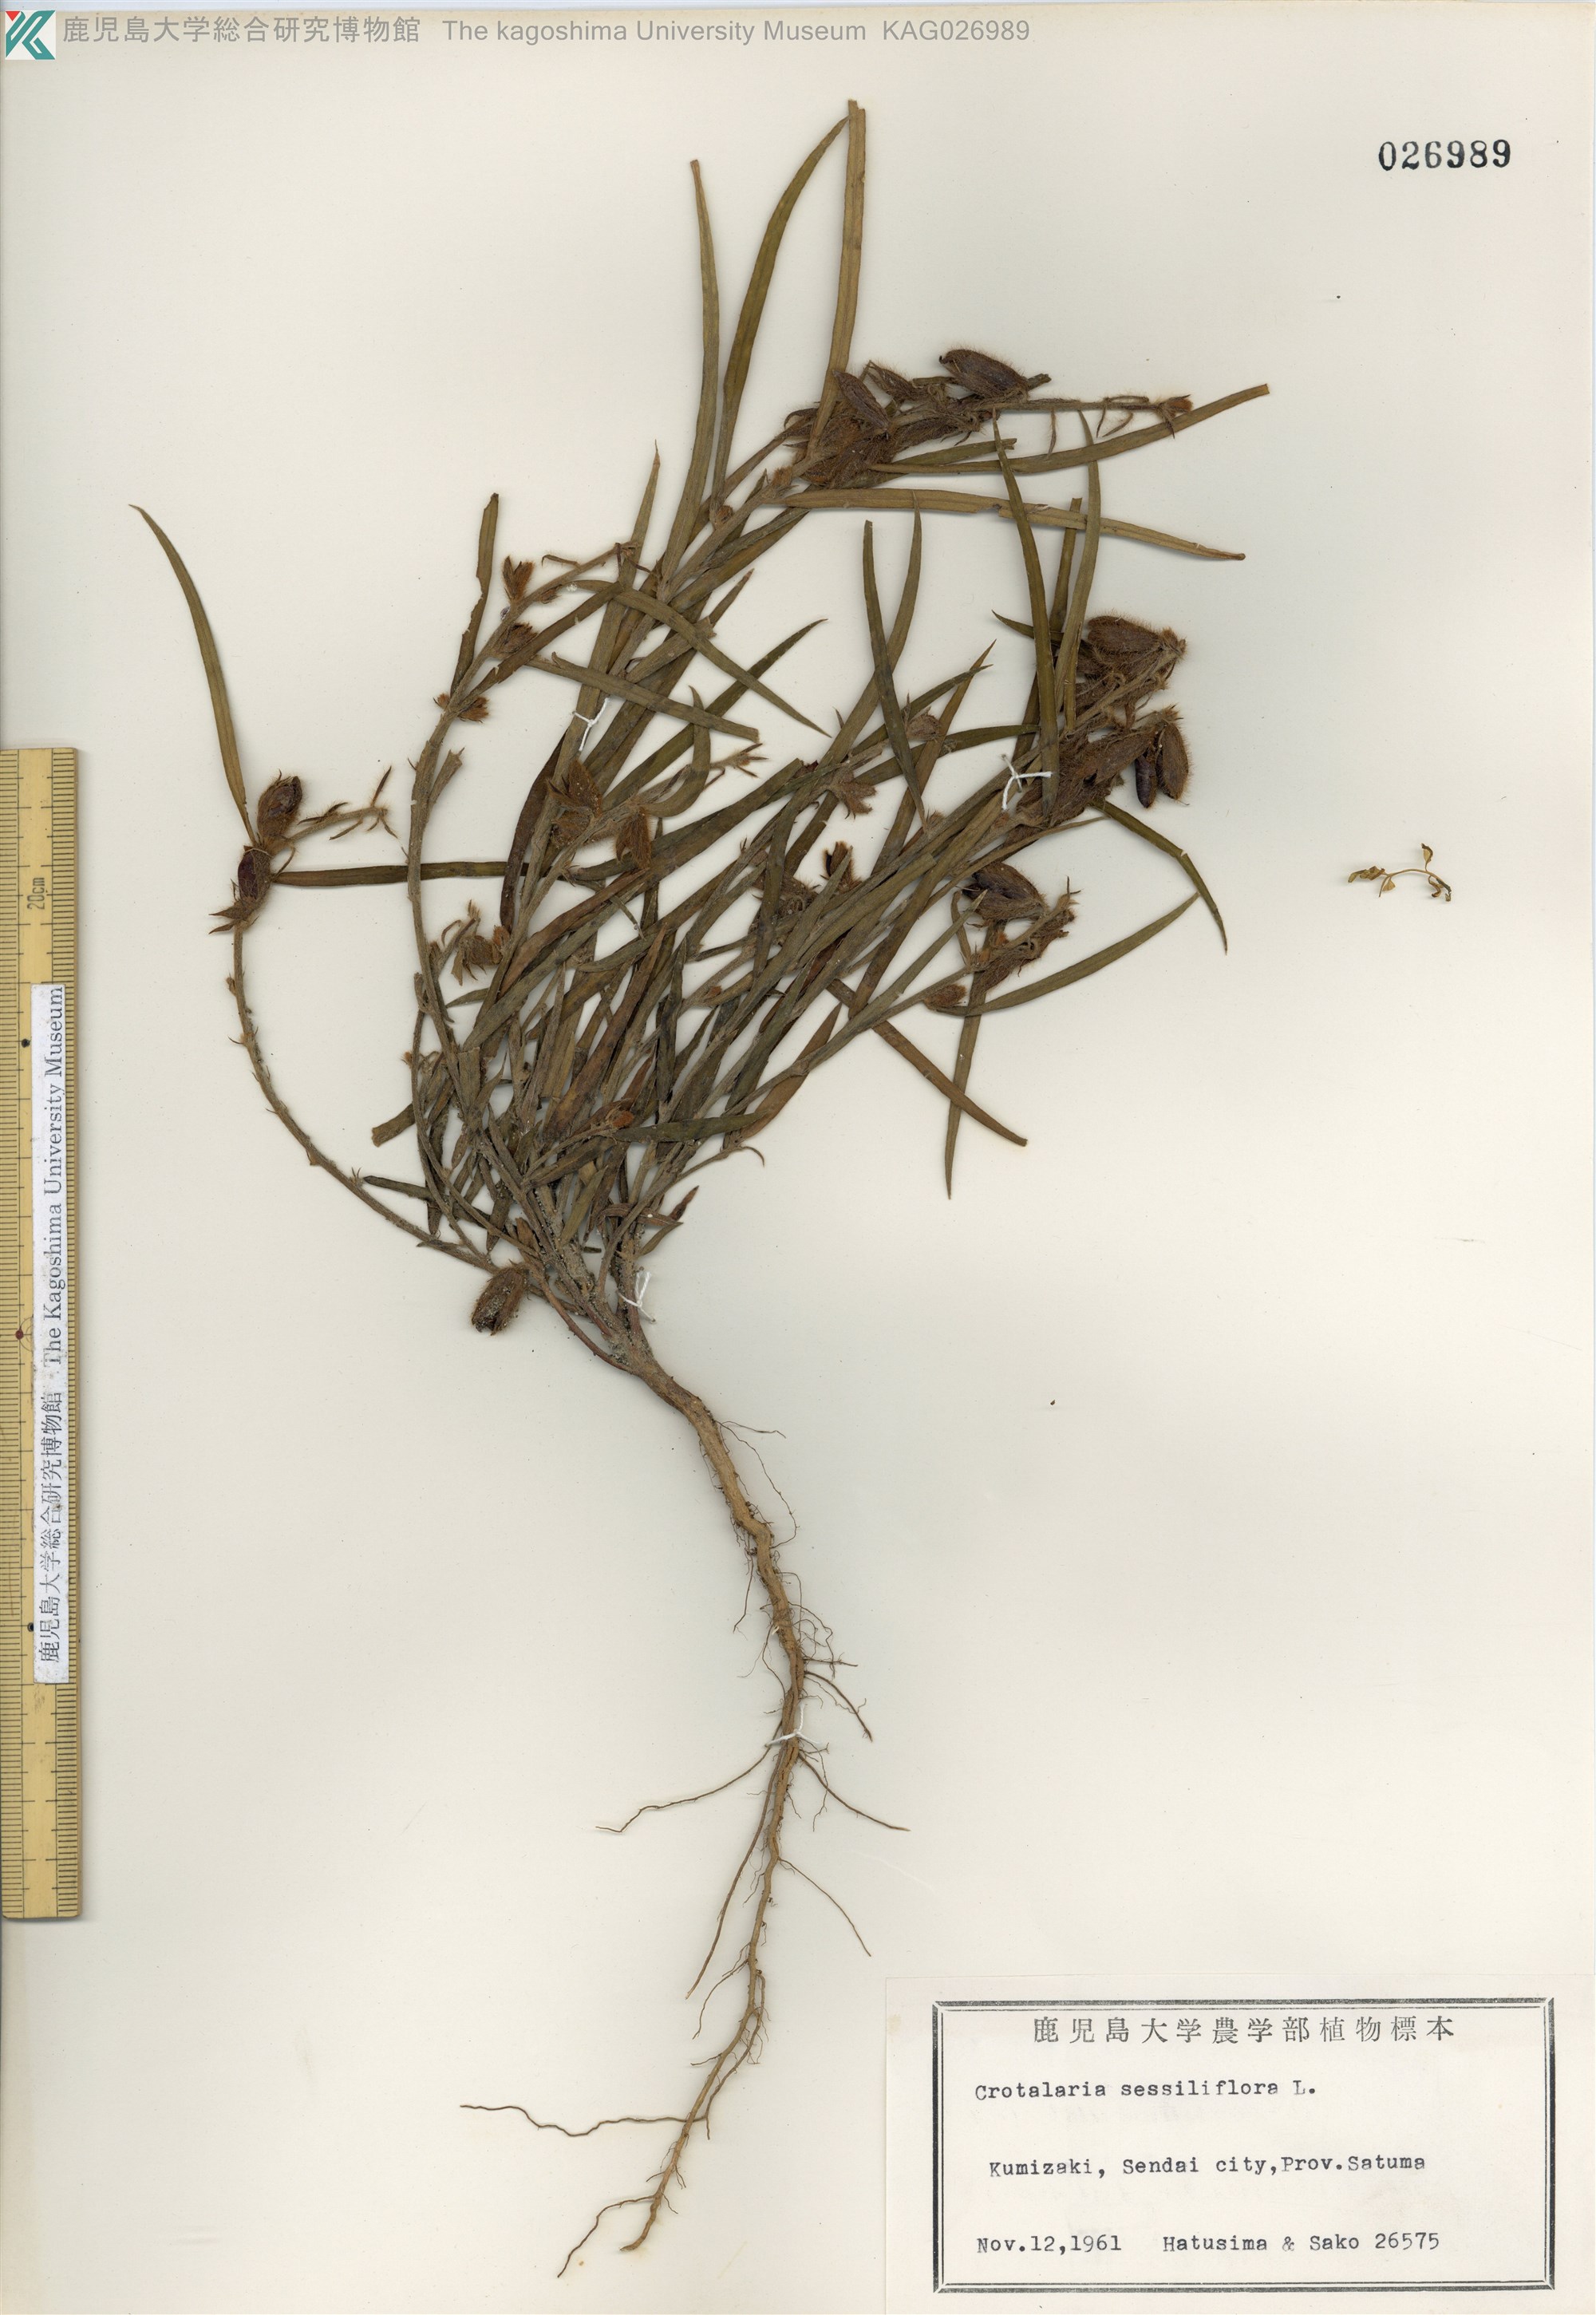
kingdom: Plantae
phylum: Tracheophyta
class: Magnoliopsida
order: Fabales
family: Fabaceae
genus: Crotalaria
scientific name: Crotalaria sessiliflora
